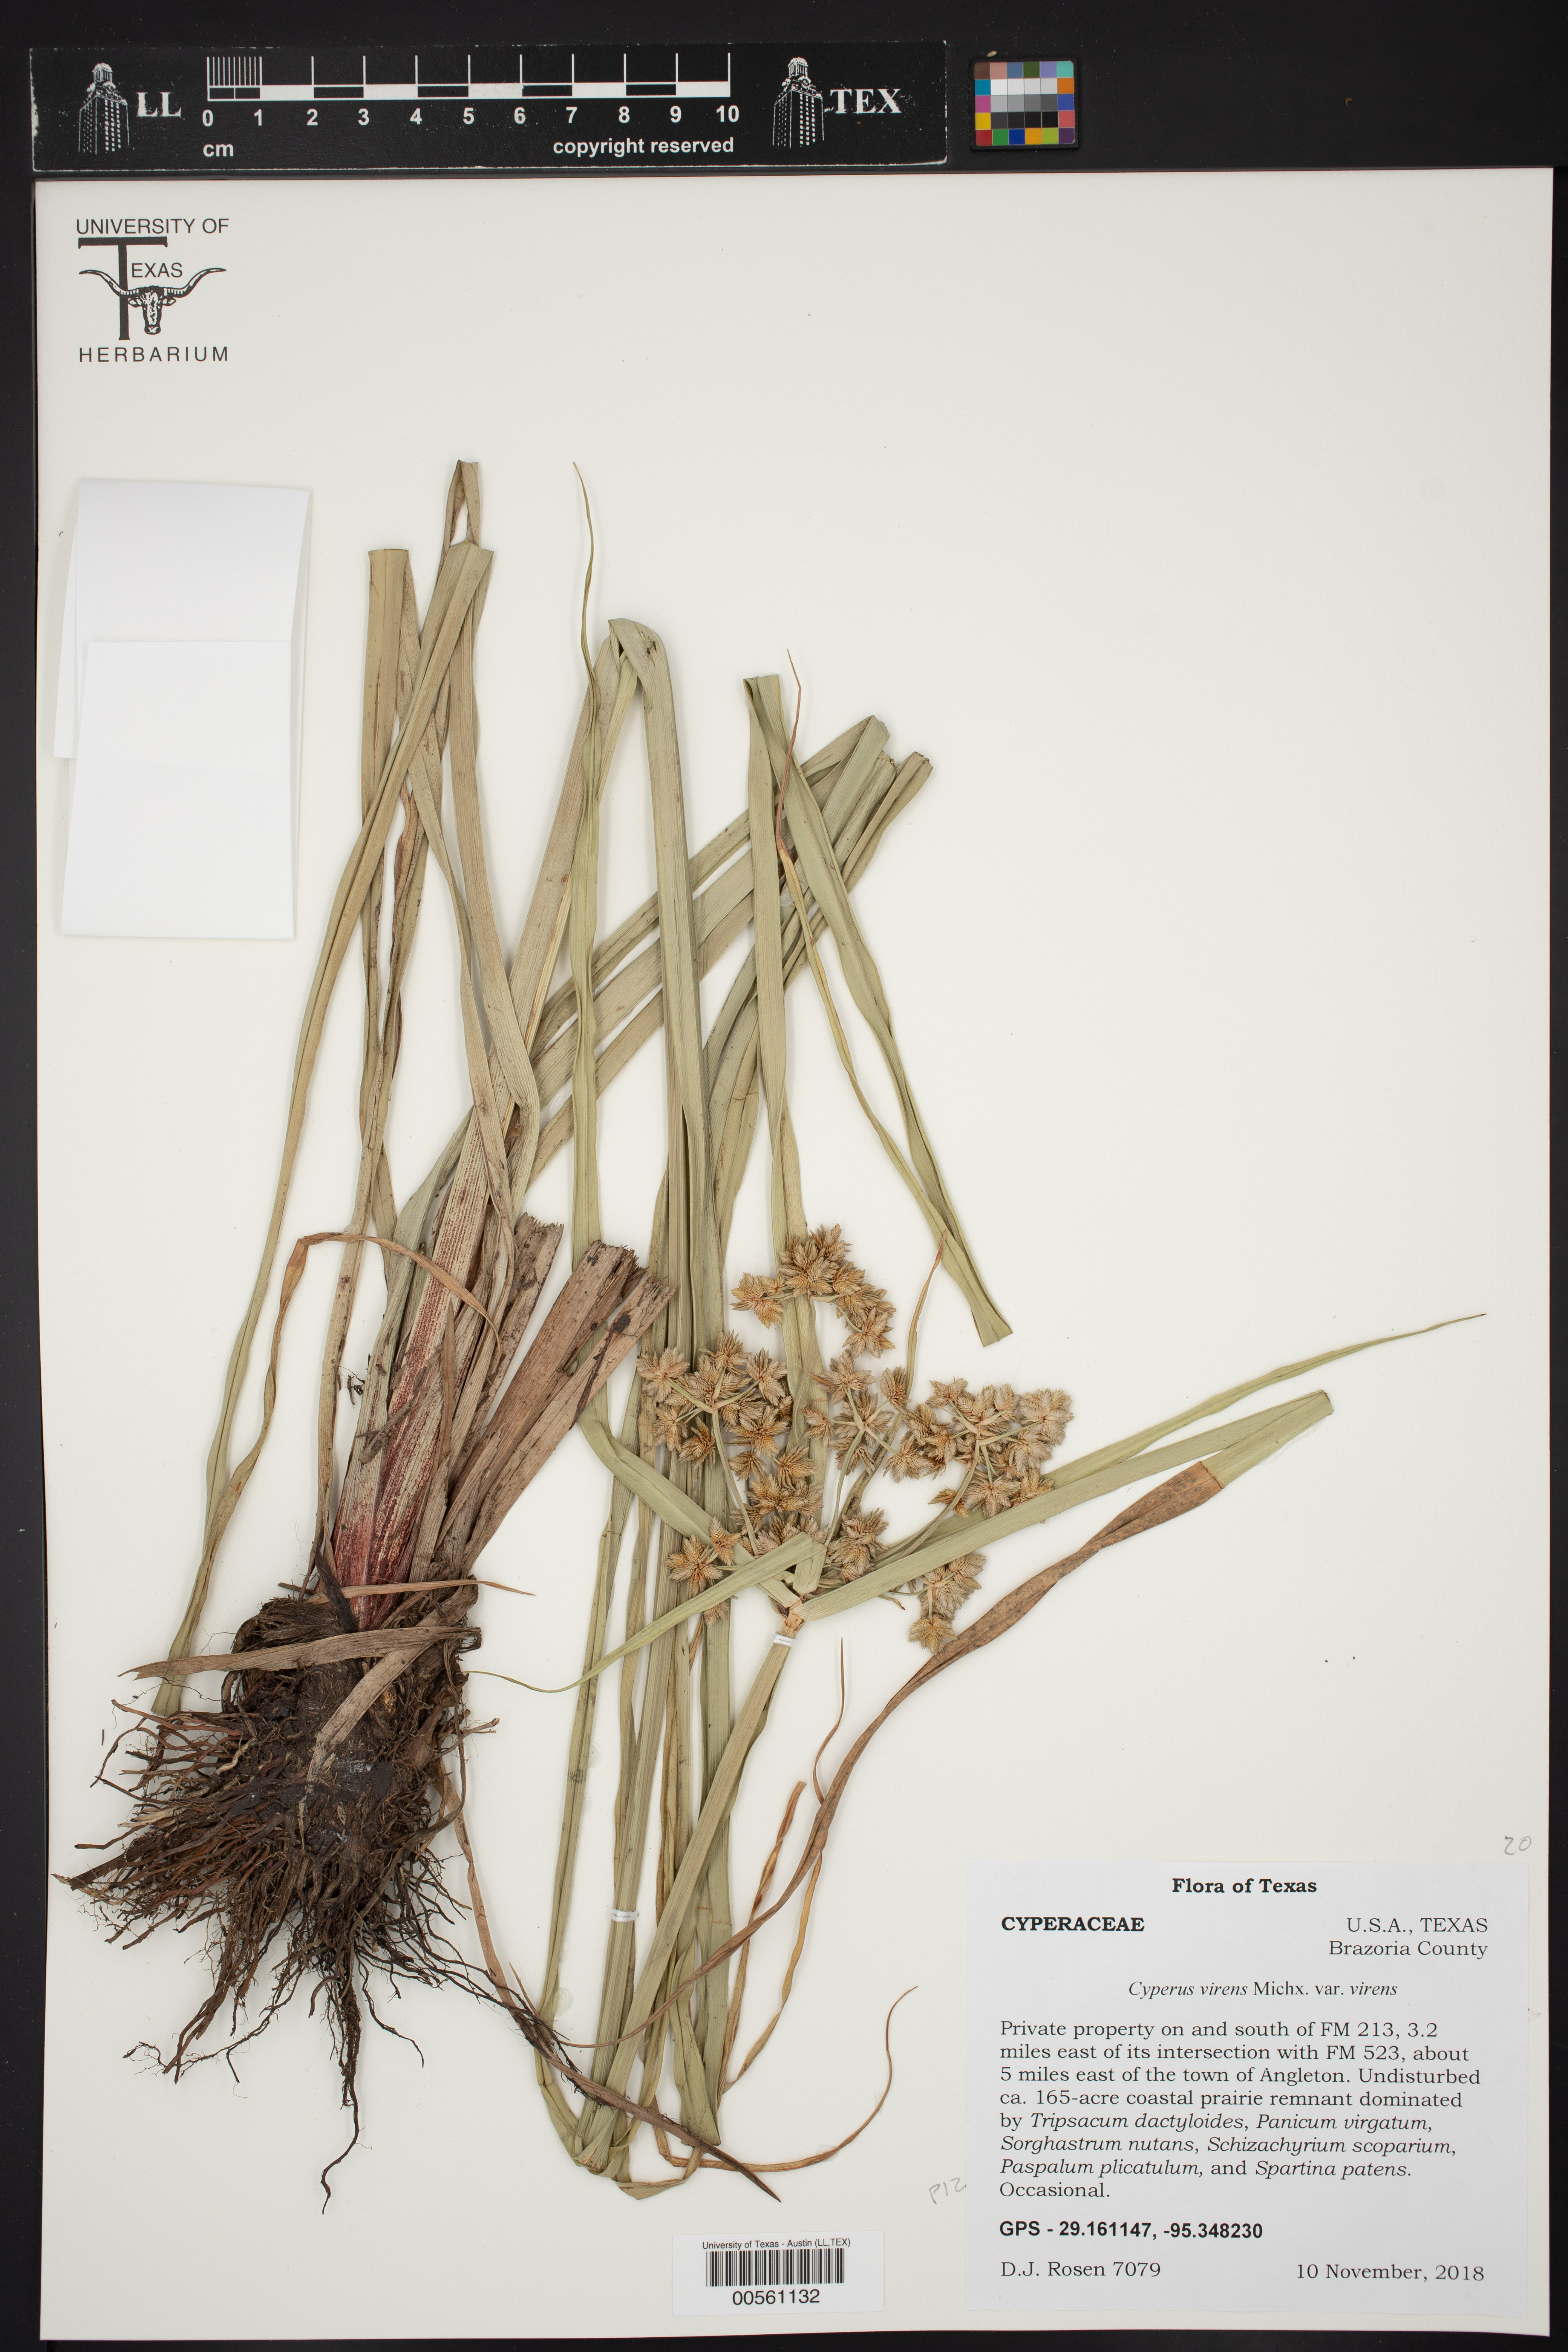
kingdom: Plantae
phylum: Tracheophyta
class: Liliopsida
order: Poales
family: Cyperaceae
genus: Cyperus
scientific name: Cyperus virens
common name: Green flatsedge
